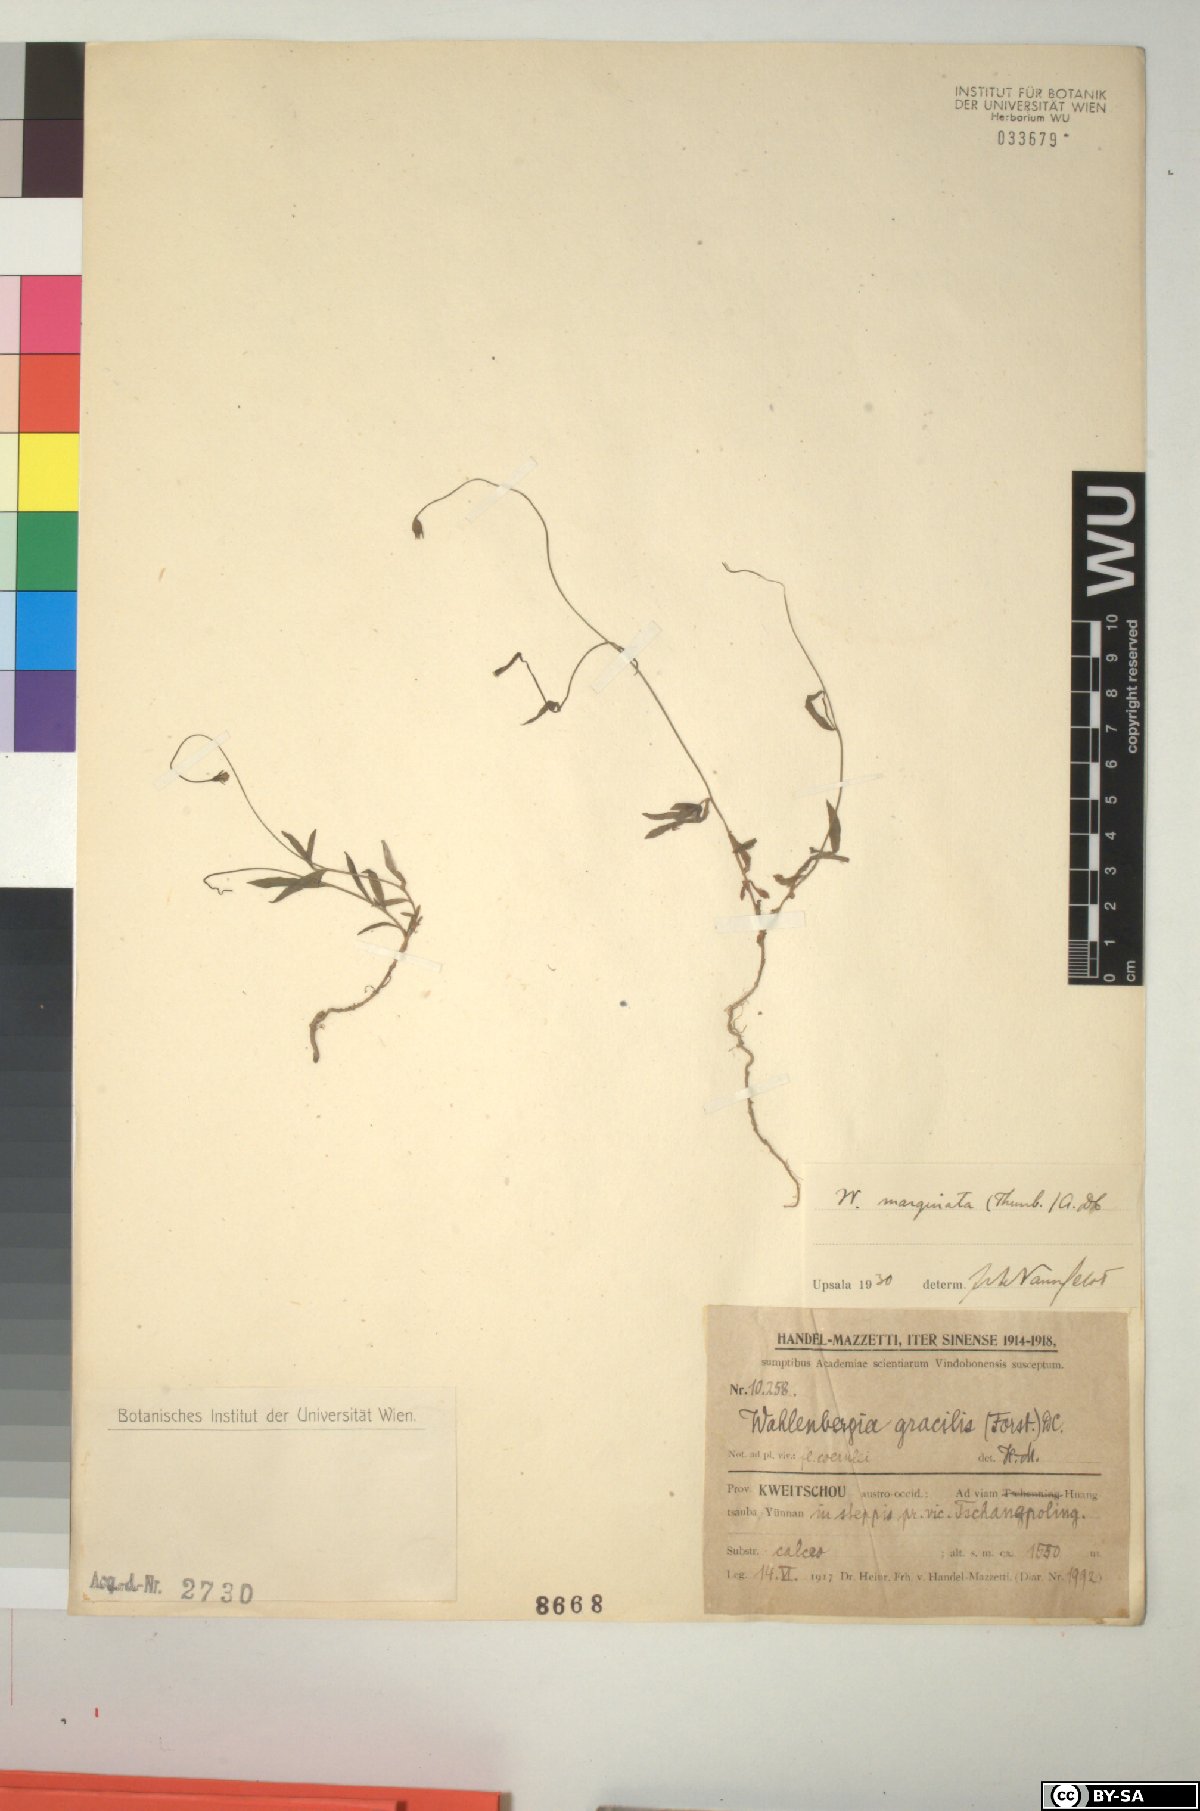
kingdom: Plantae
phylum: Tracheophyta
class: Magnoliopsida
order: Asterales
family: Campanulaceae
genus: Wahlenbergia
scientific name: Wahlenbergia marginata
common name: Southern rockbell
